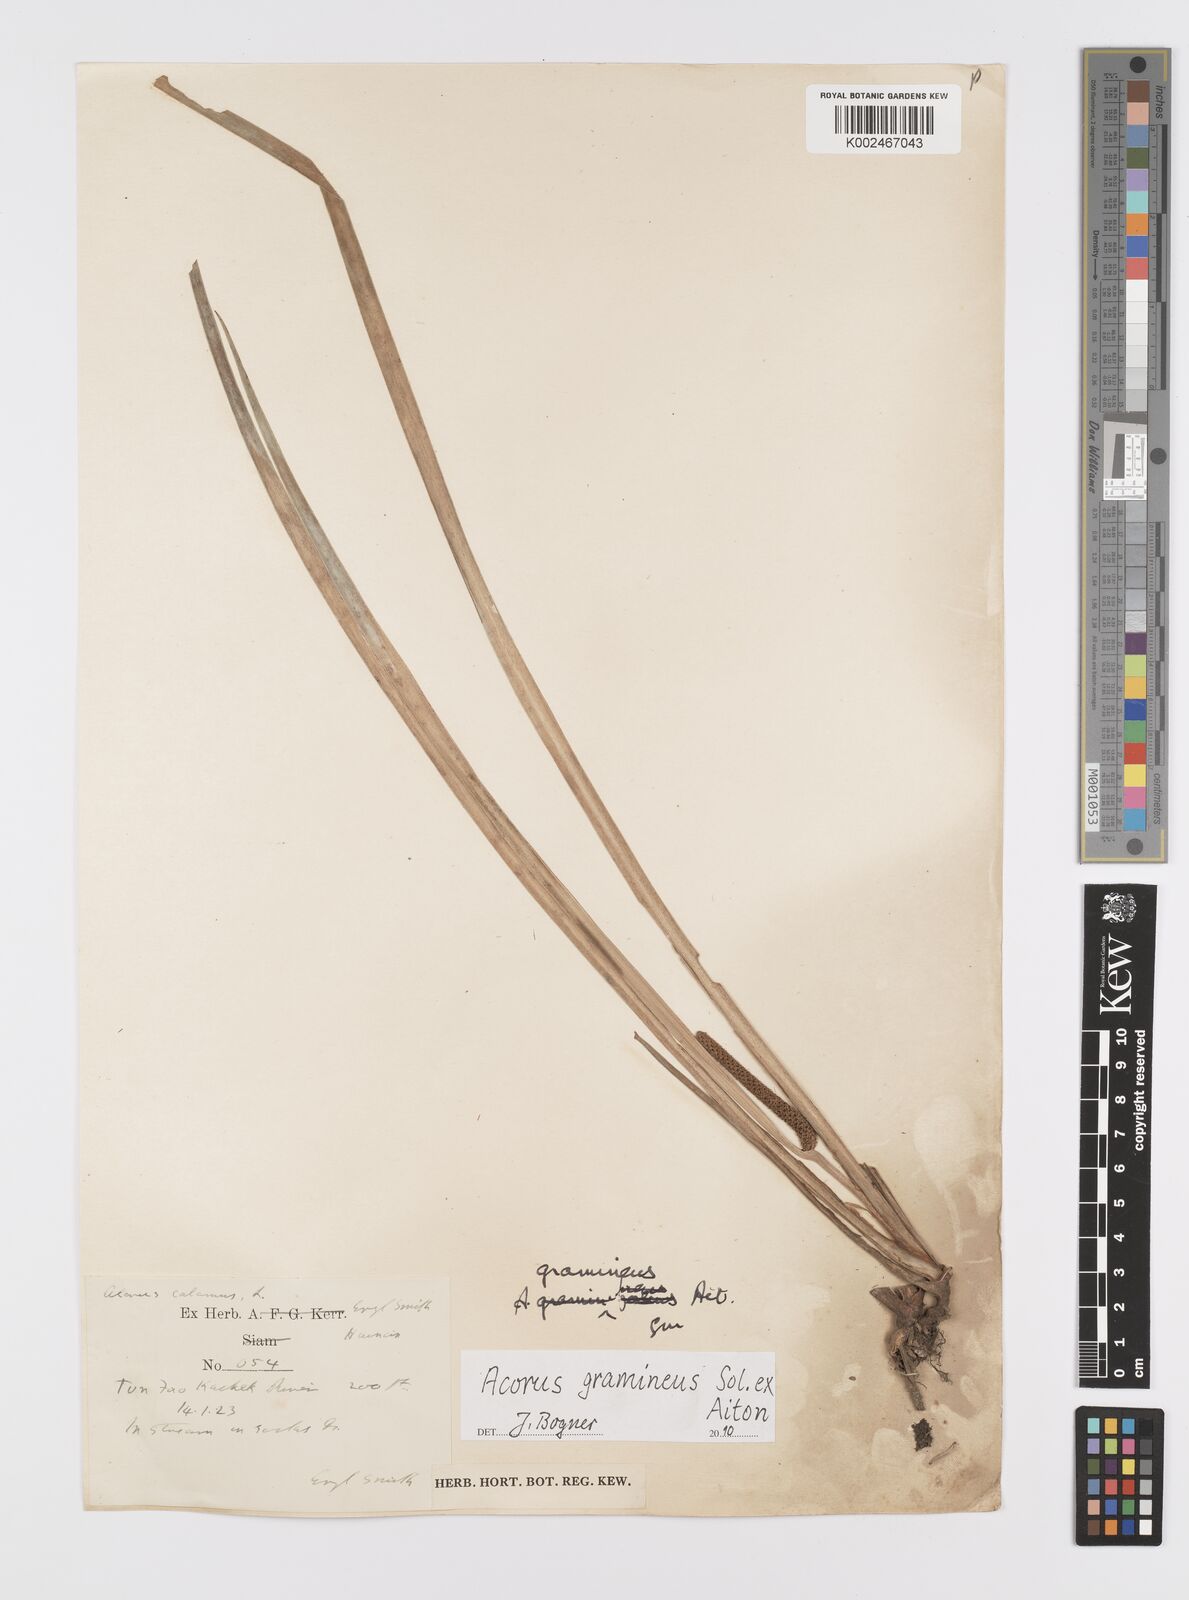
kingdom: Plantae
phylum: Tracheophyta
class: Liliopsida
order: Acorales
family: Acoraceae
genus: Acorus
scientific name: Acorus gramineus
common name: Slender sweet-flag
